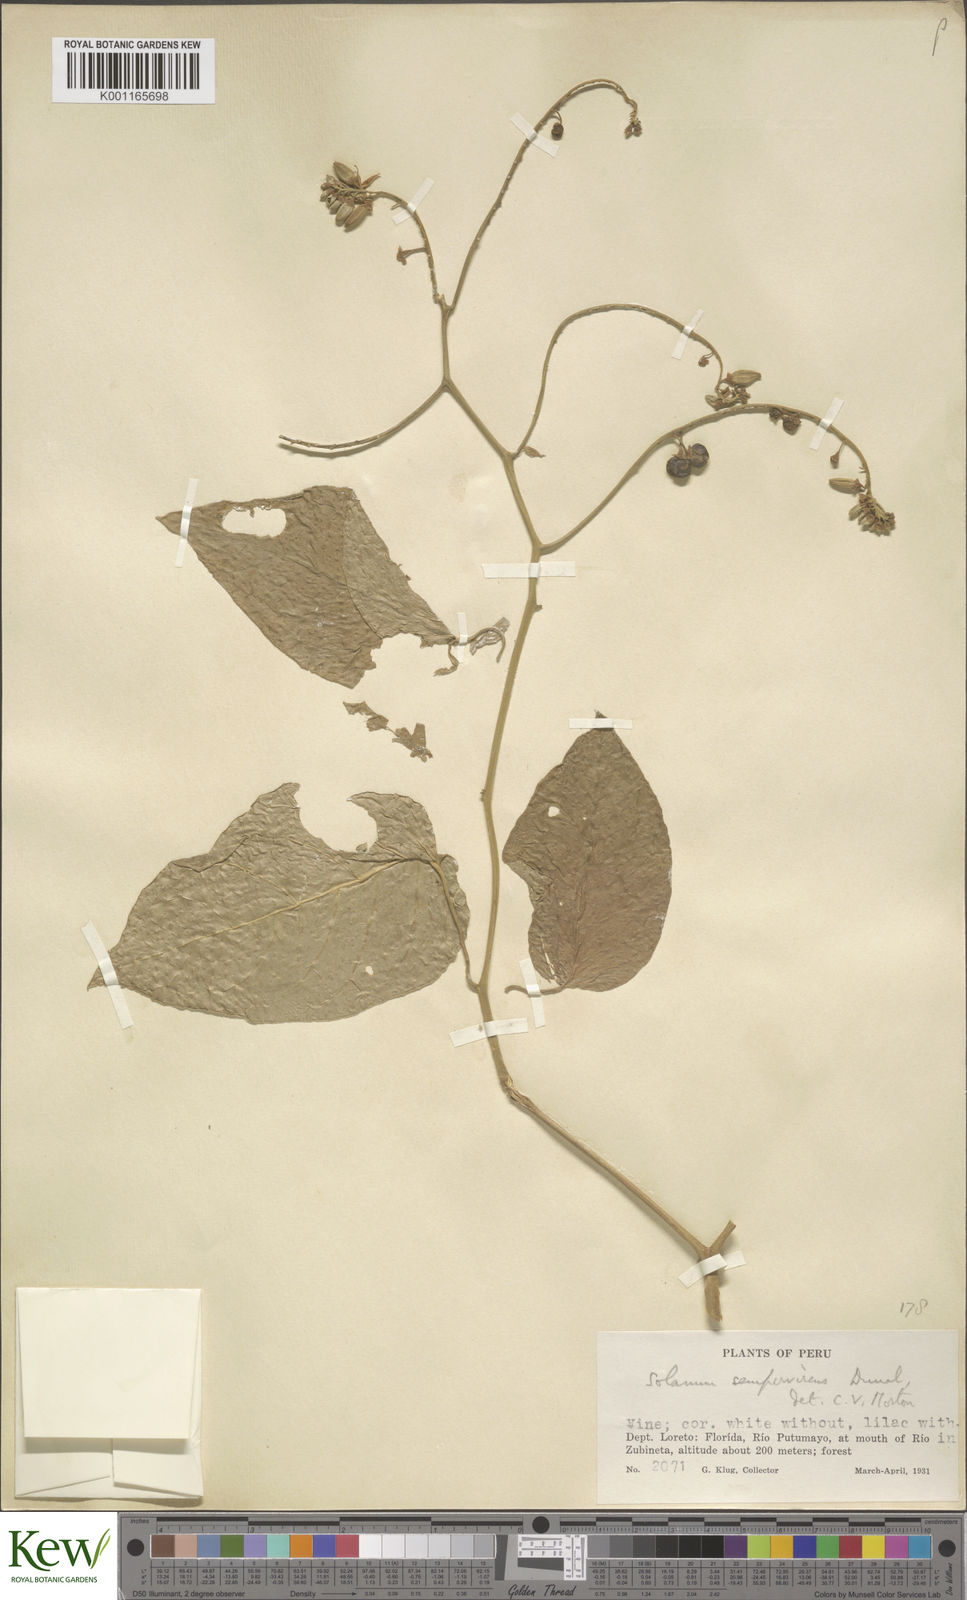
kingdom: Plantae
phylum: Tracheophyta
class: Magnoliopsida
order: Solanales
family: Solanaceae
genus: Solanum
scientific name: Solanum uncinellum
